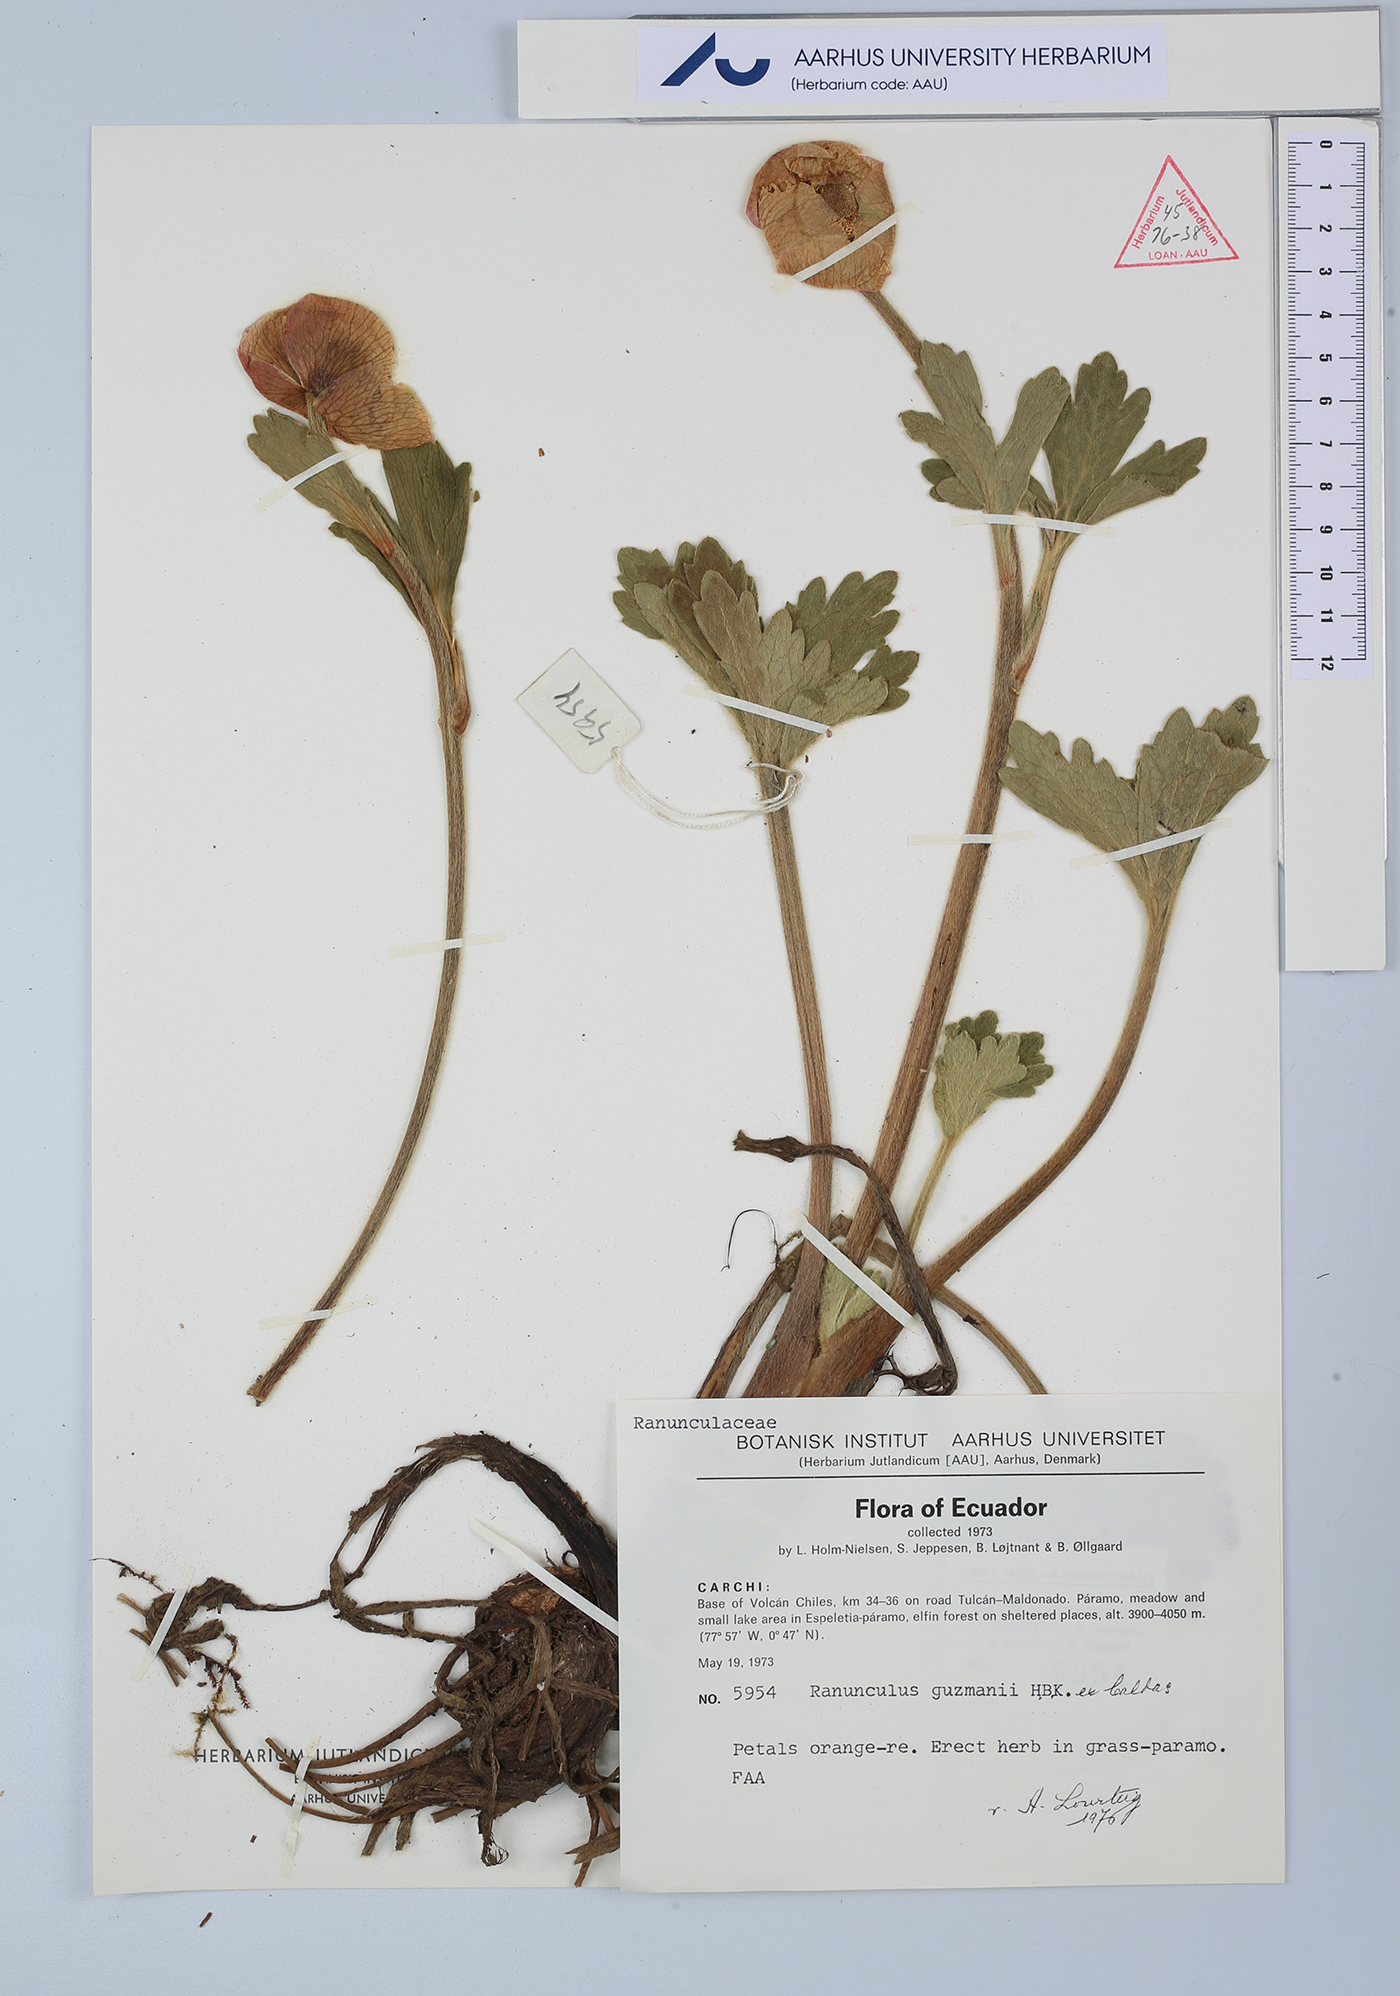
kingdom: Plantae
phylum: Tracheophyta
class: Magnoliopsida
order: Ranunculales
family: Ranunculaceae
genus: Krapfia
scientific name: Krapfia ranunculina
